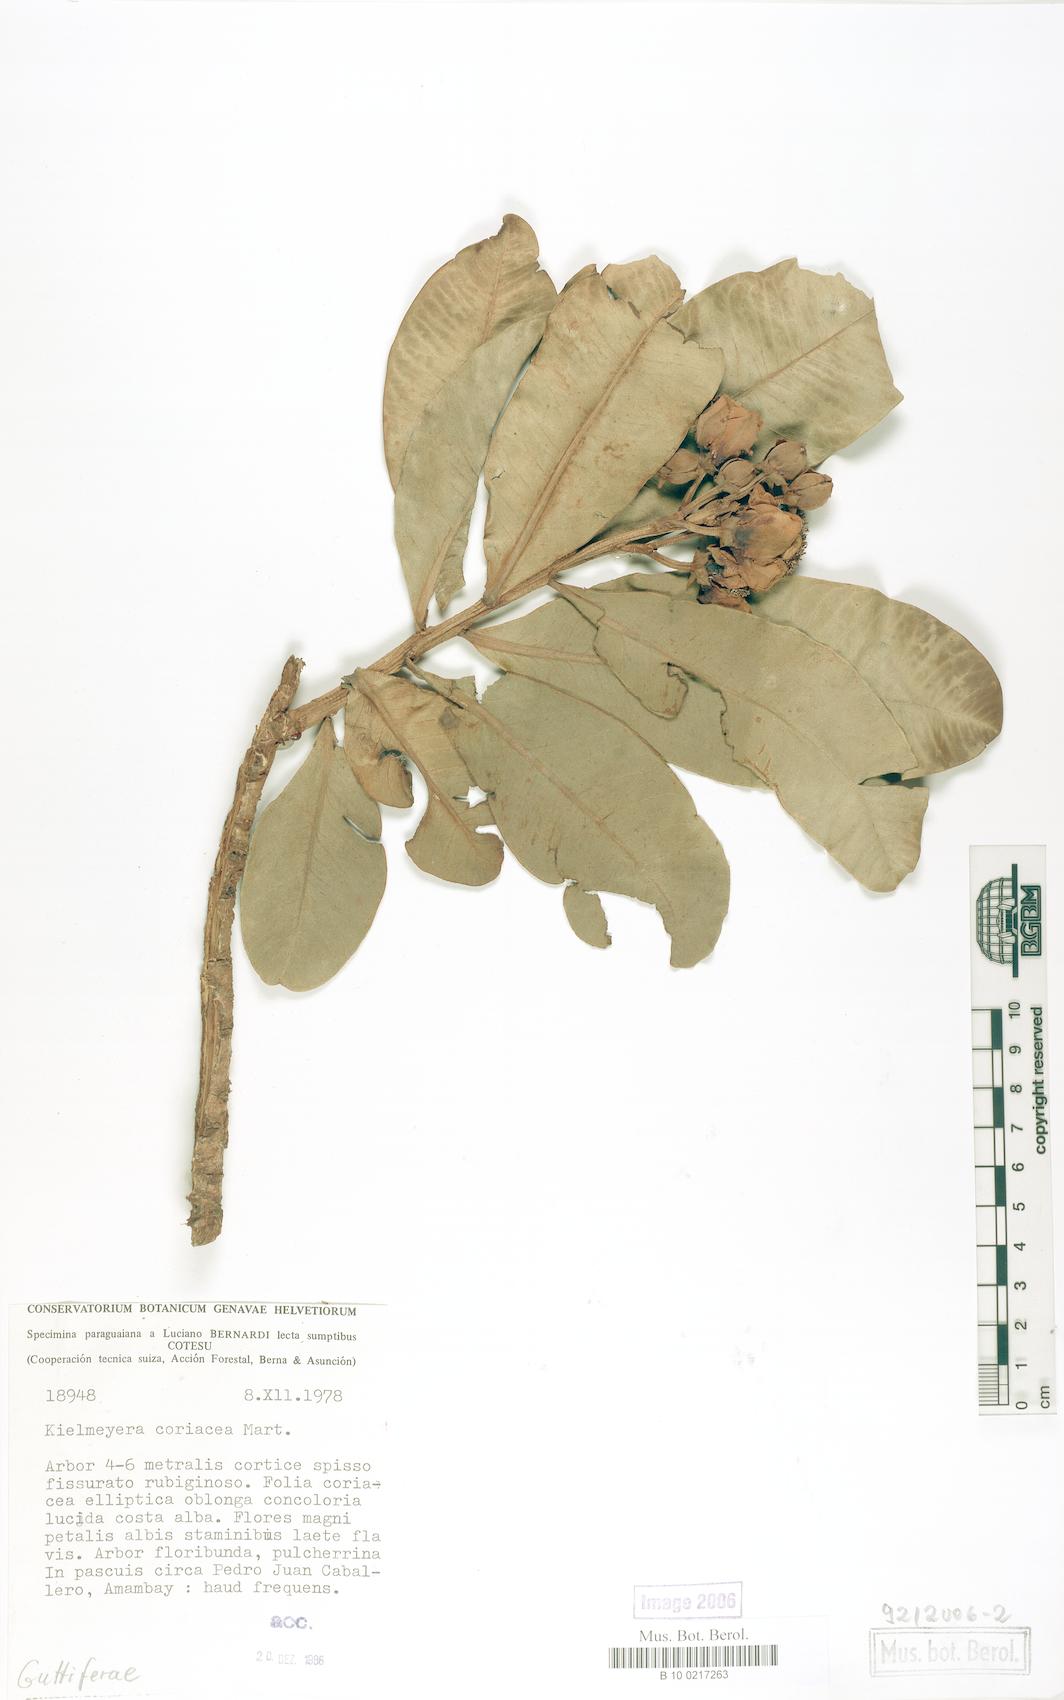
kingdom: Plantae
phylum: Tracheophyta
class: Magnoliopsida
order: Malpighiales
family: Calophyllaceae
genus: Kielmeyera
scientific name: Kielmeyera coriacea
